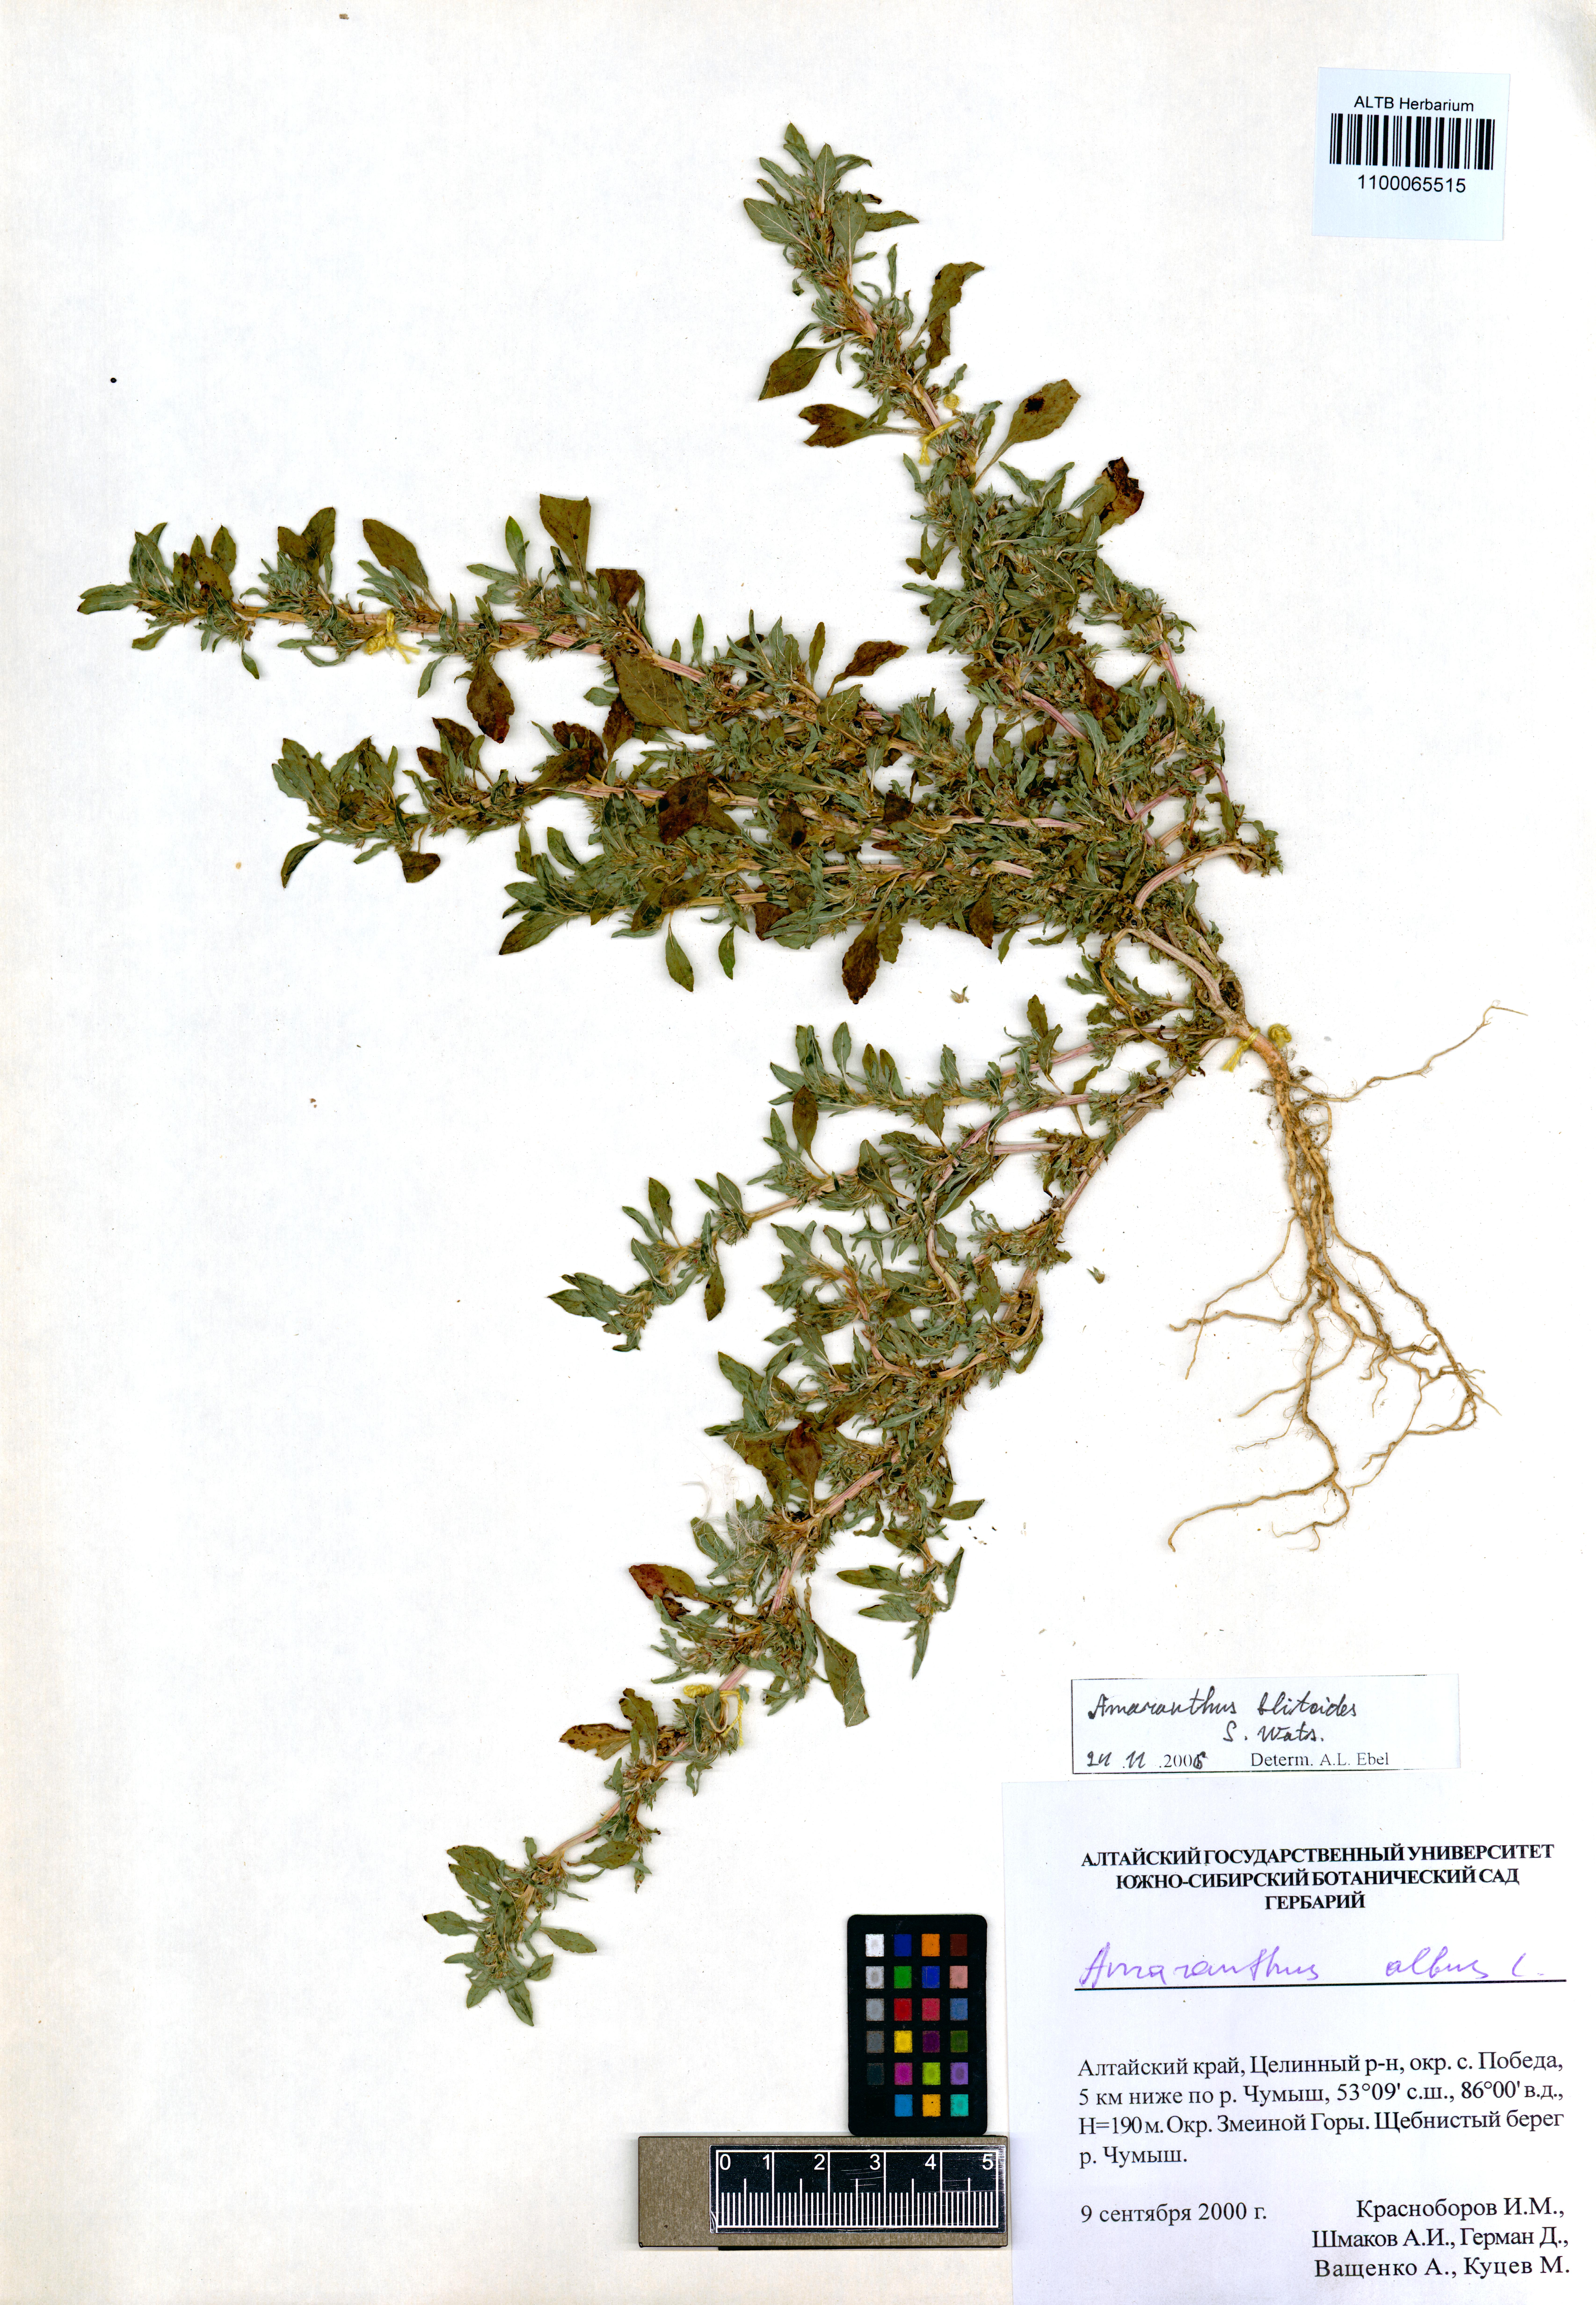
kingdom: Plantae
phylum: Tracheophyta
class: Magnoliopsida
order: Caryophyllales
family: Amaranthaceae
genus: Amaranthus
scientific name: Amaranthus blitoides
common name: Prostrate pigweed
